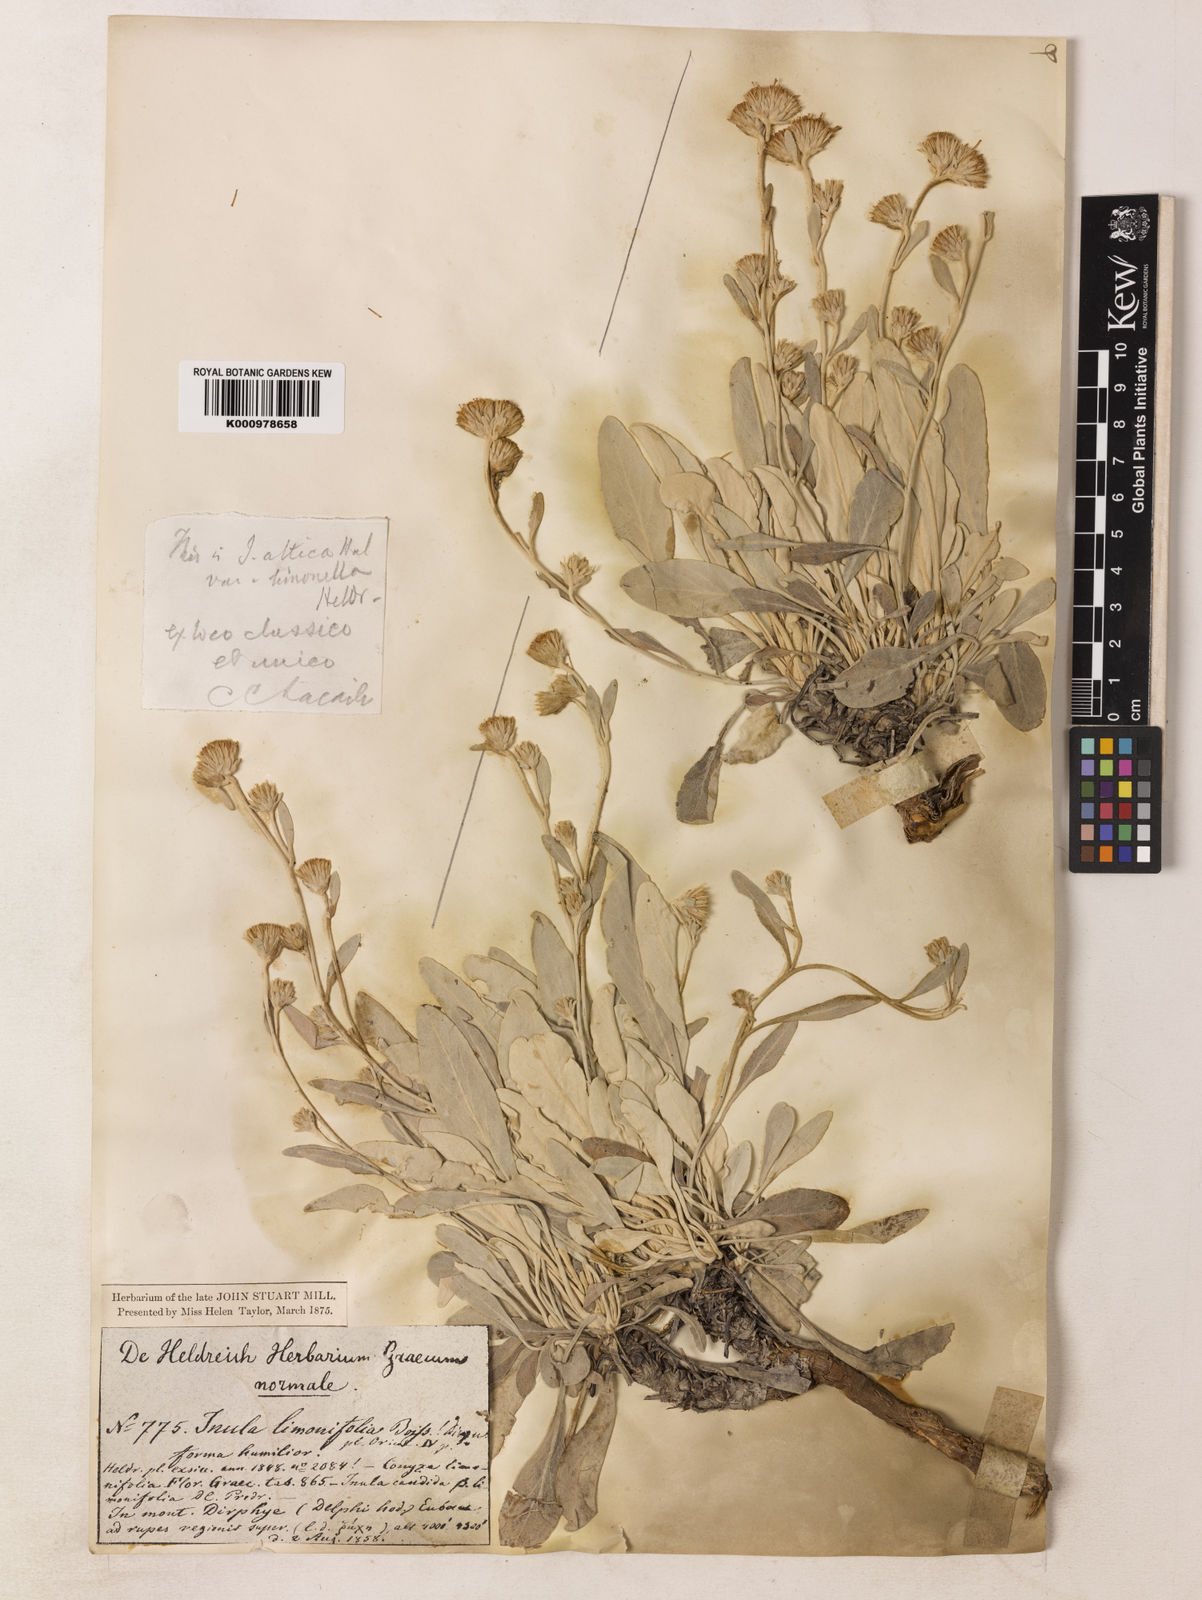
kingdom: Plantae
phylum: Tracheophyta
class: Magnoliopsida
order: Asterales
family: Asteraceae
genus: Inula
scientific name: Inula
